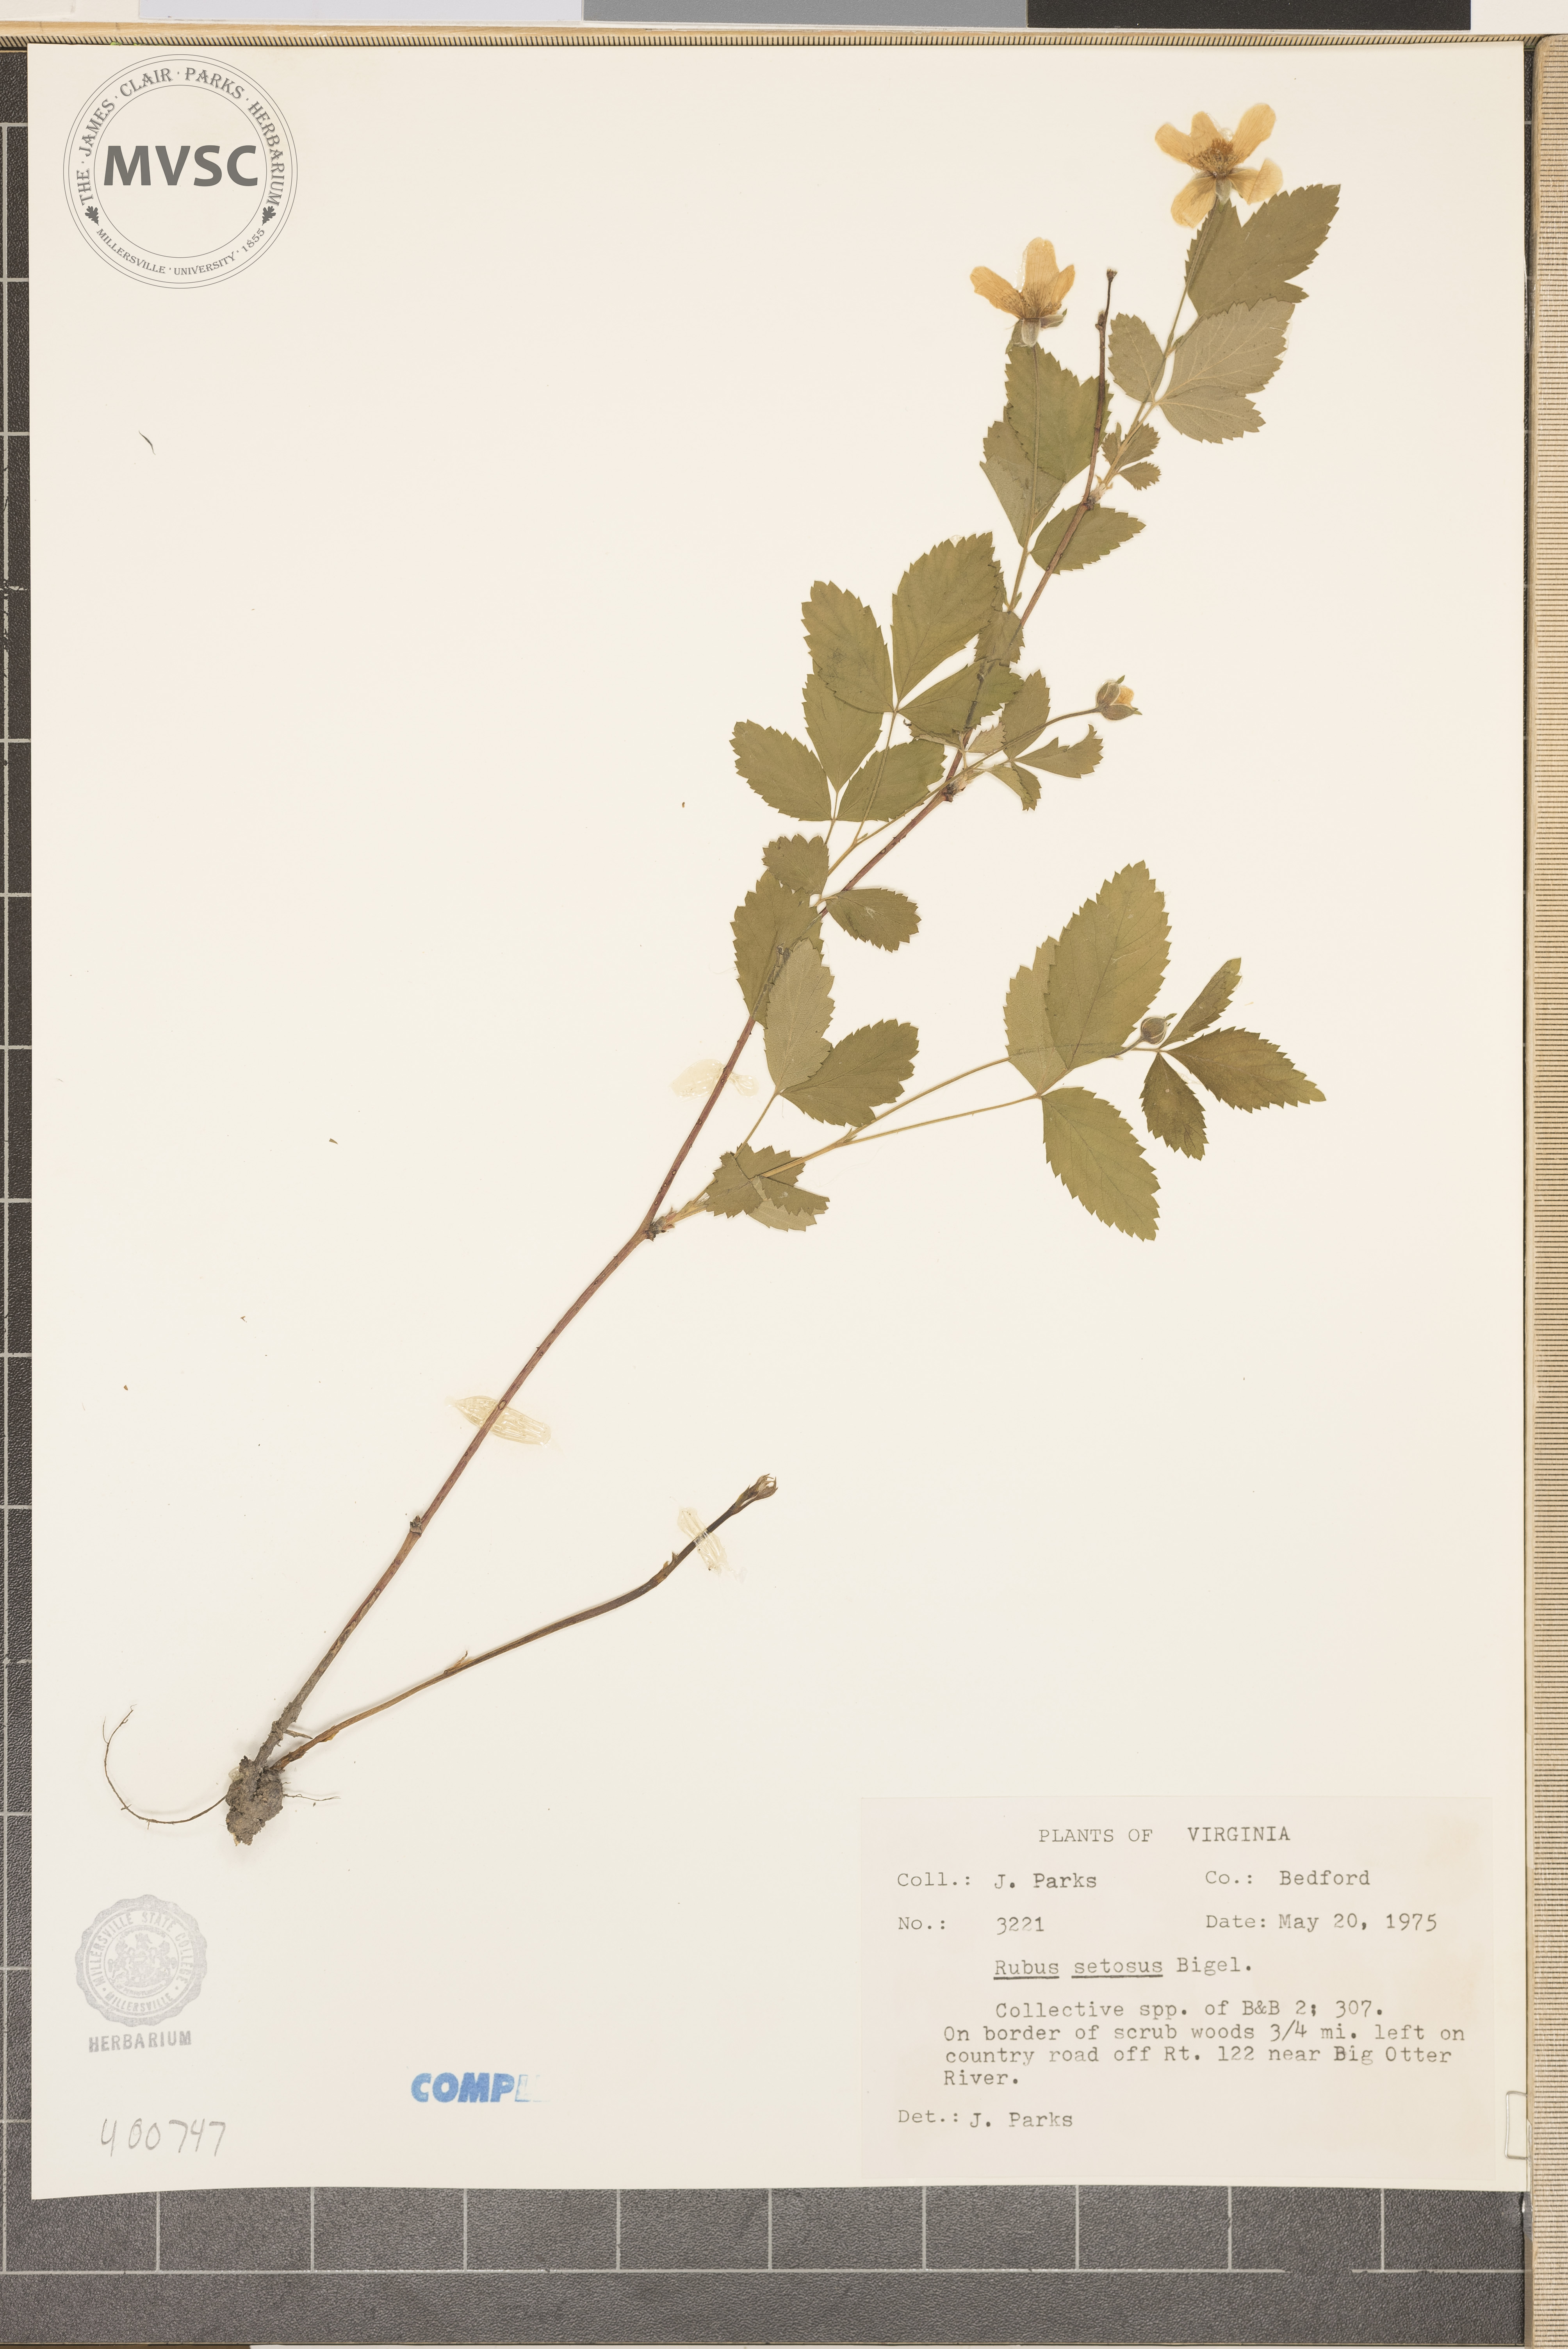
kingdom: Plantae
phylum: Tracheophyta
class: Magnoliopsida
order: Rosales
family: Rosaceae
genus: Rubus
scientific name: Rubus setosus
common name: Bristly blackberry
